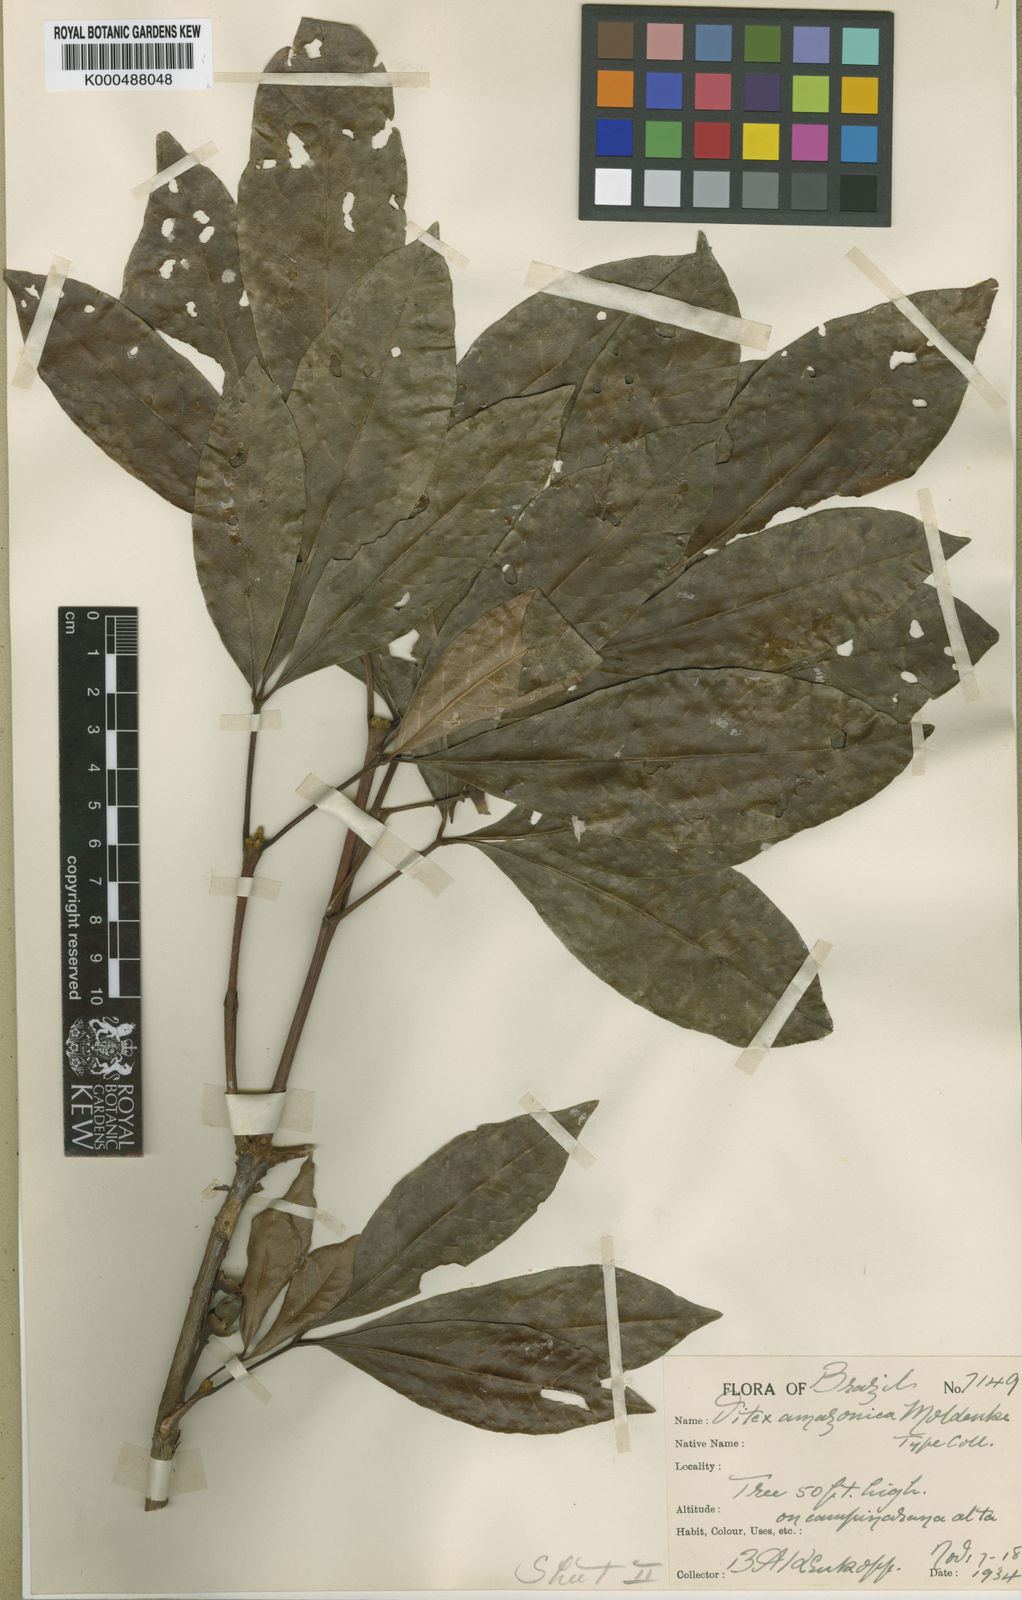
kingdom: Plantae
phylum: Tracheophyta
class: Magnoliopsida
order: Lamiales
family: Lamiaceae
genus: Vitex
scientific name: Vitex klugii
